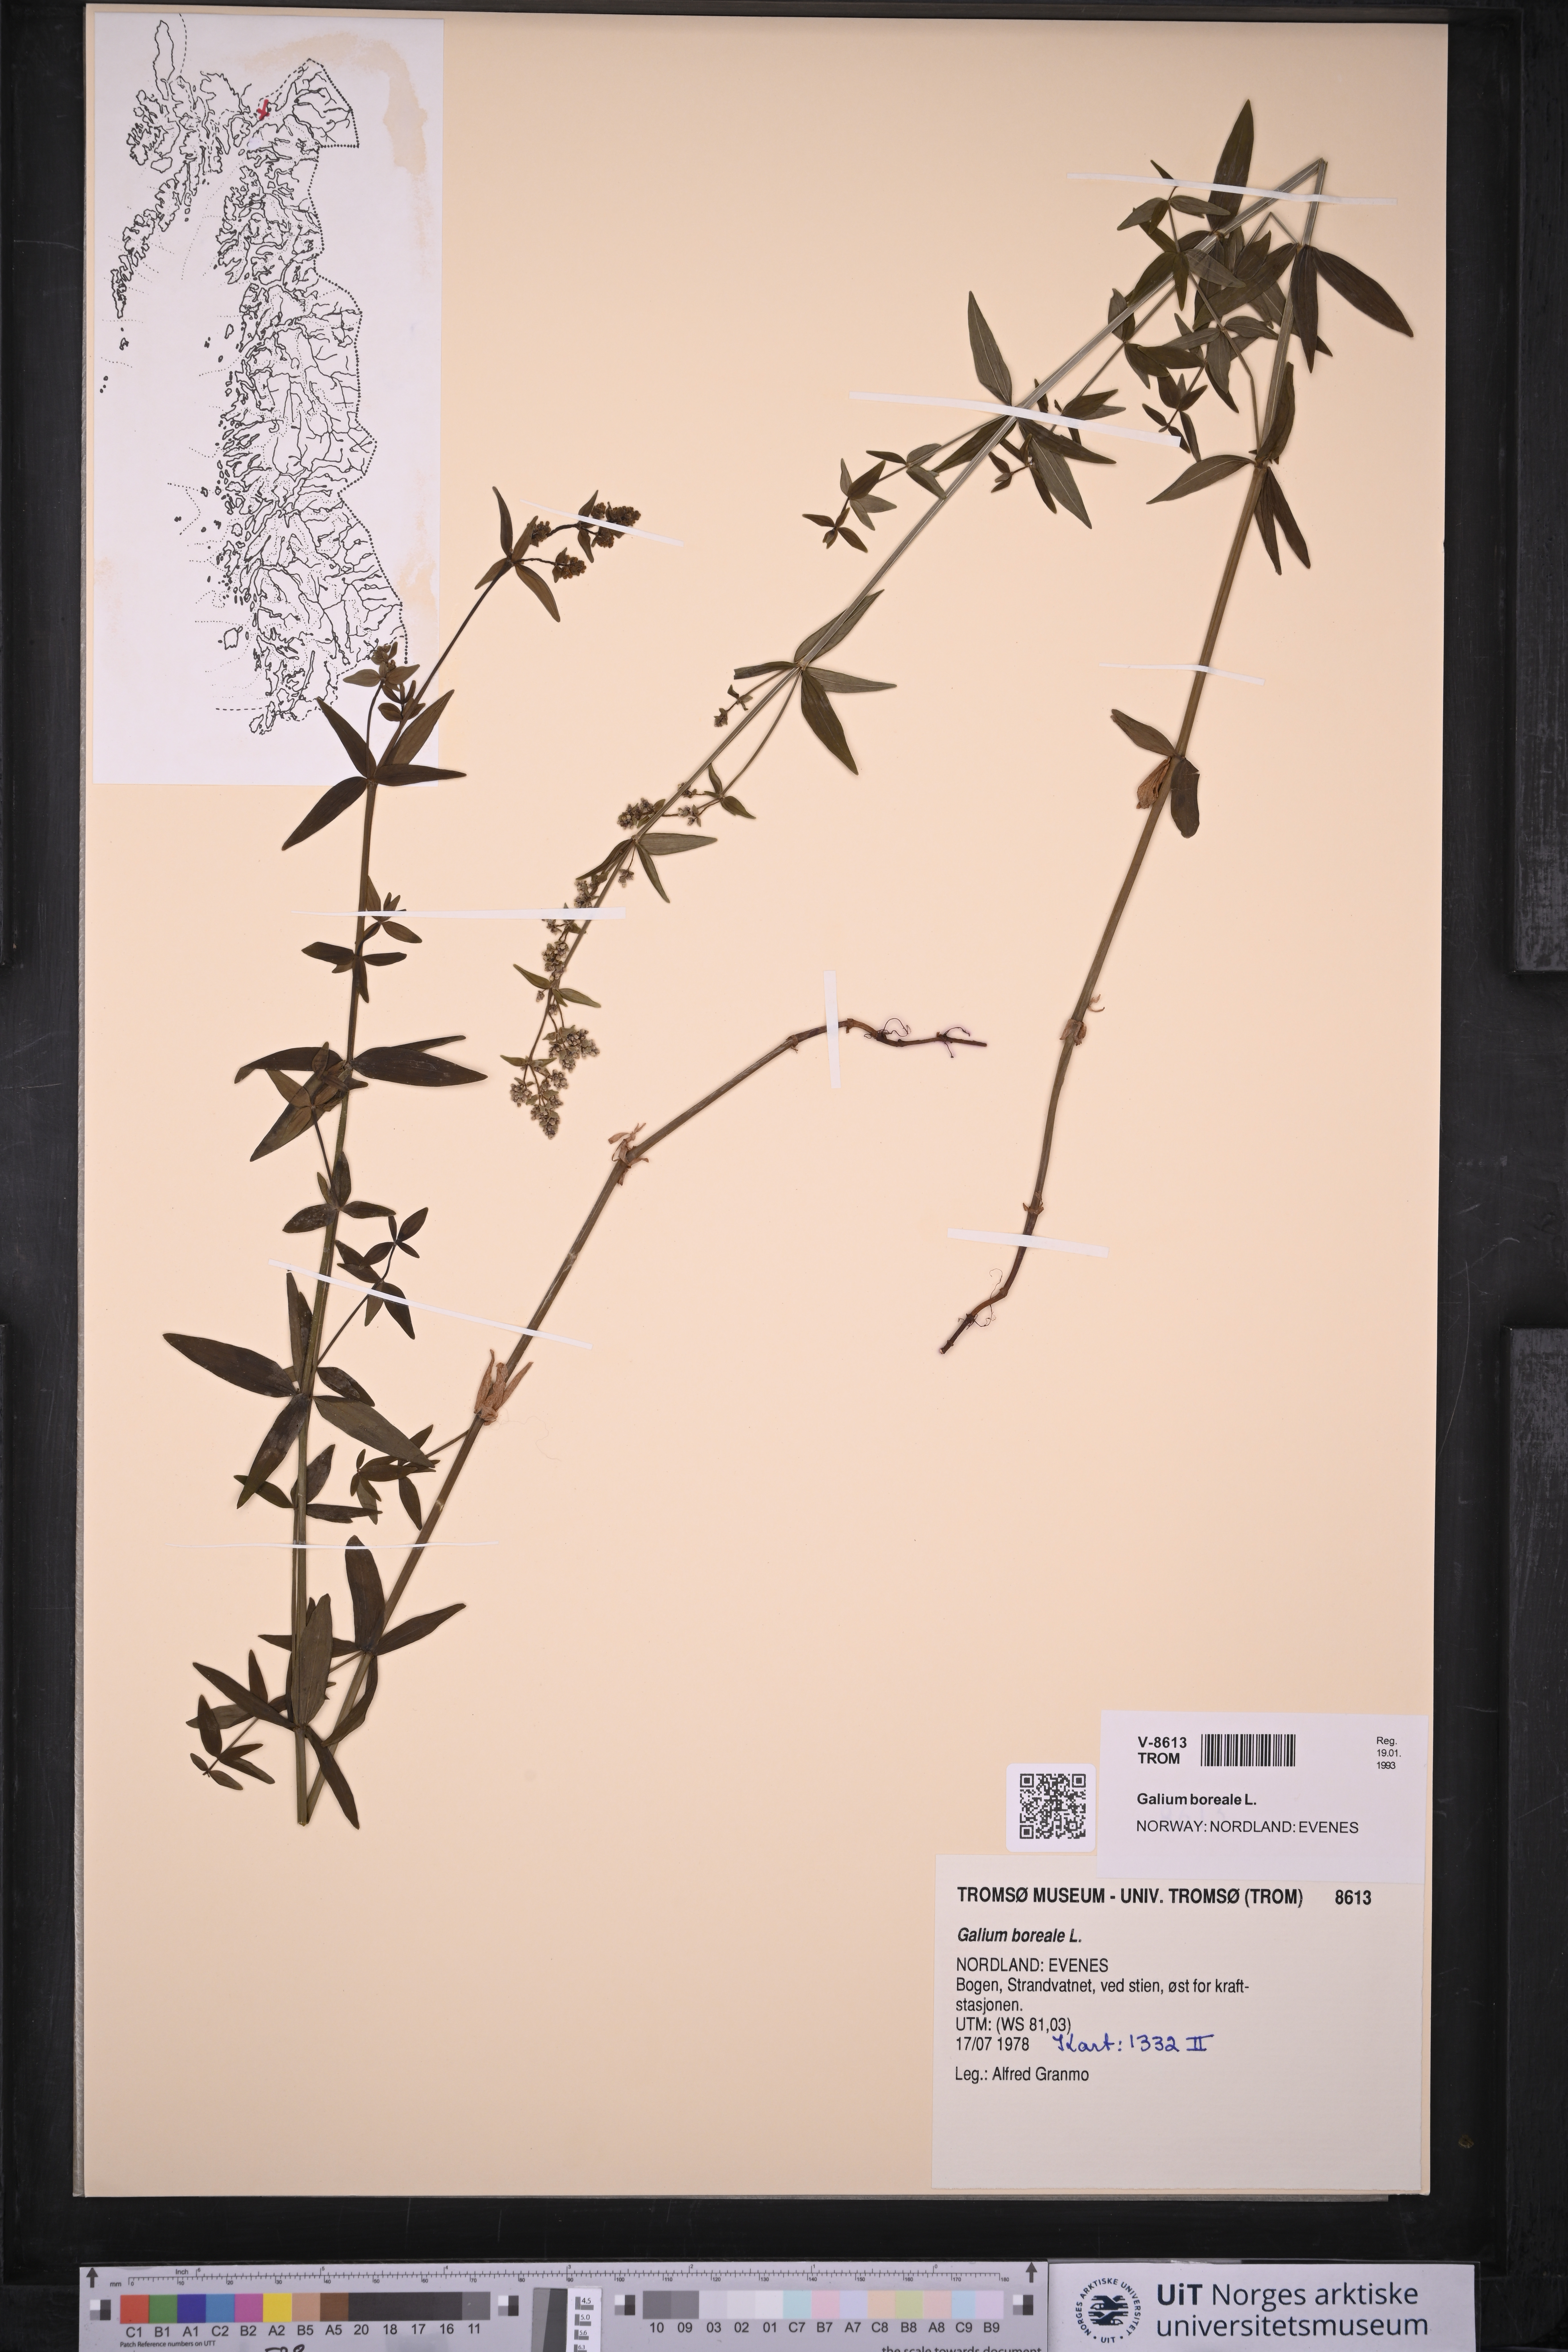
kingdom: Plantae
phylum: Tracheophyta
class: Magnoliopsida
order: Gentianales
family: Rubiaceae
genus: Galium
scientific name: Galium boreale
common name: Northern bedstraw
